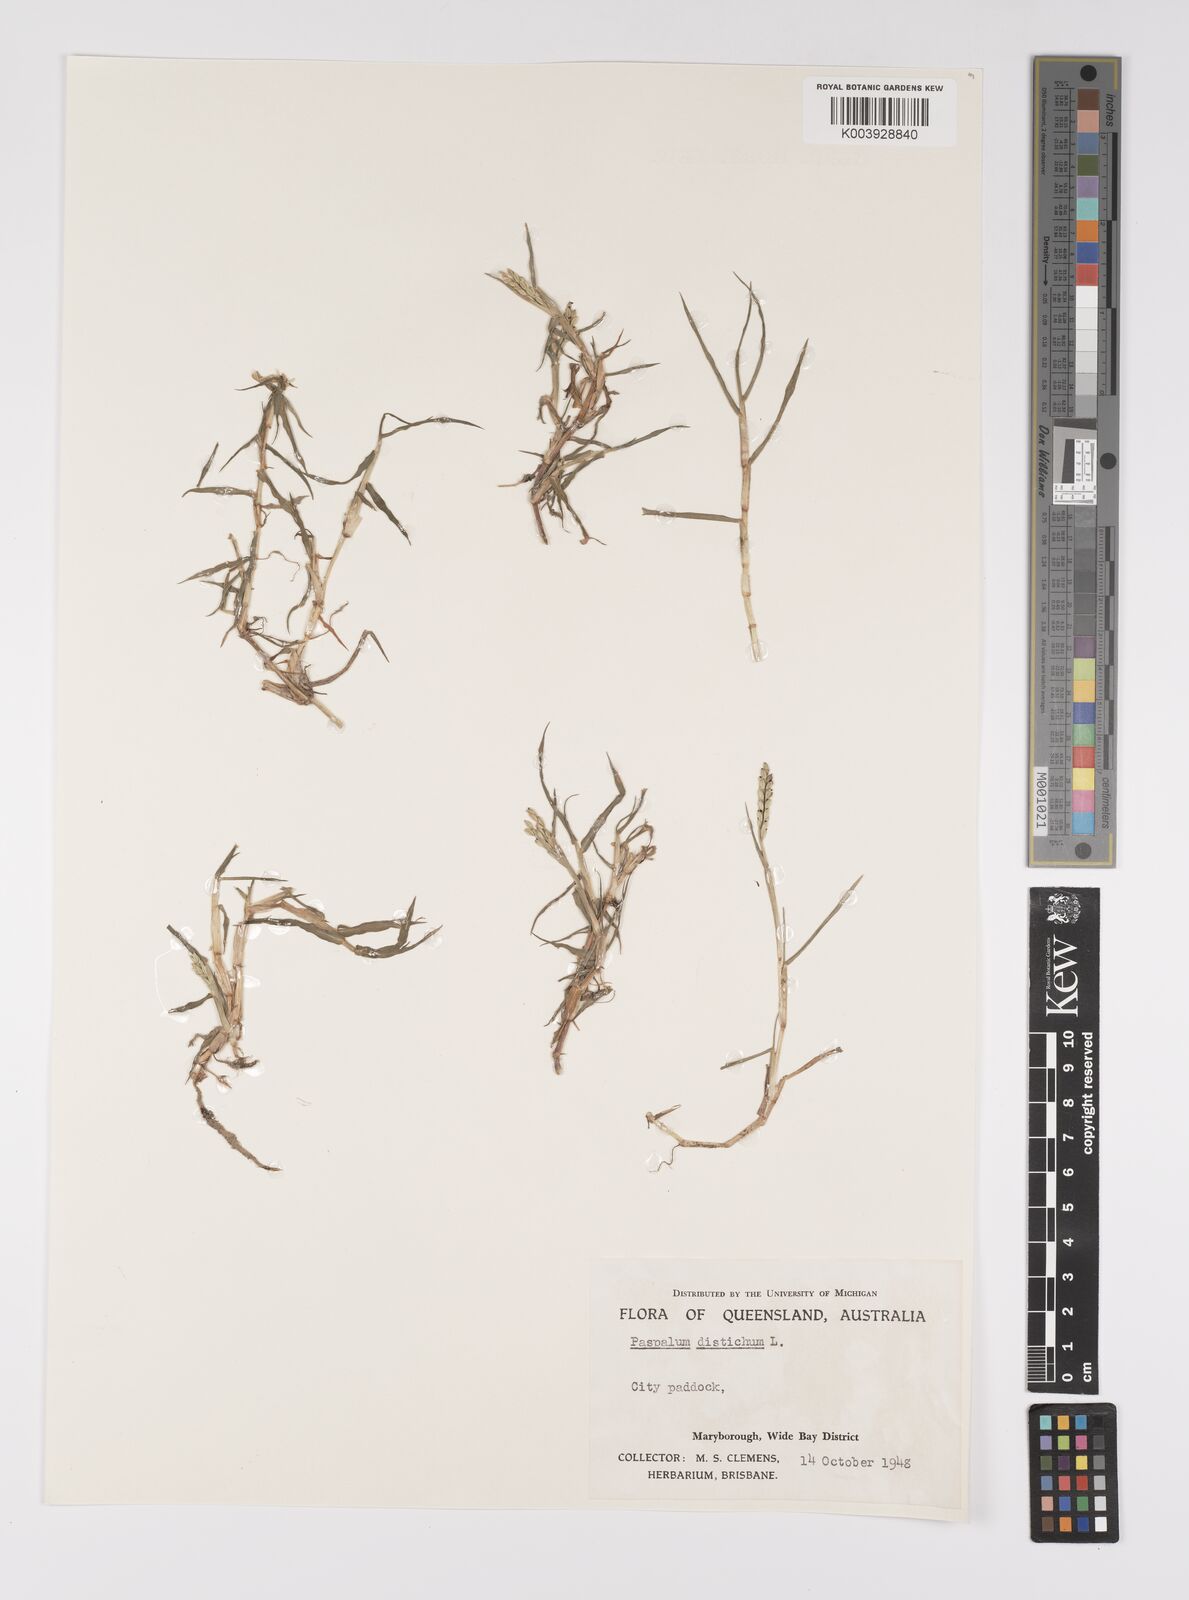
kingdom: Plantae
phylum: Tracheophyta
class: Liliopsida
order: Poales
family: Poaceae
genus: Paspalum
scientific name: Paspalum distichum
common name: Knotgrass
